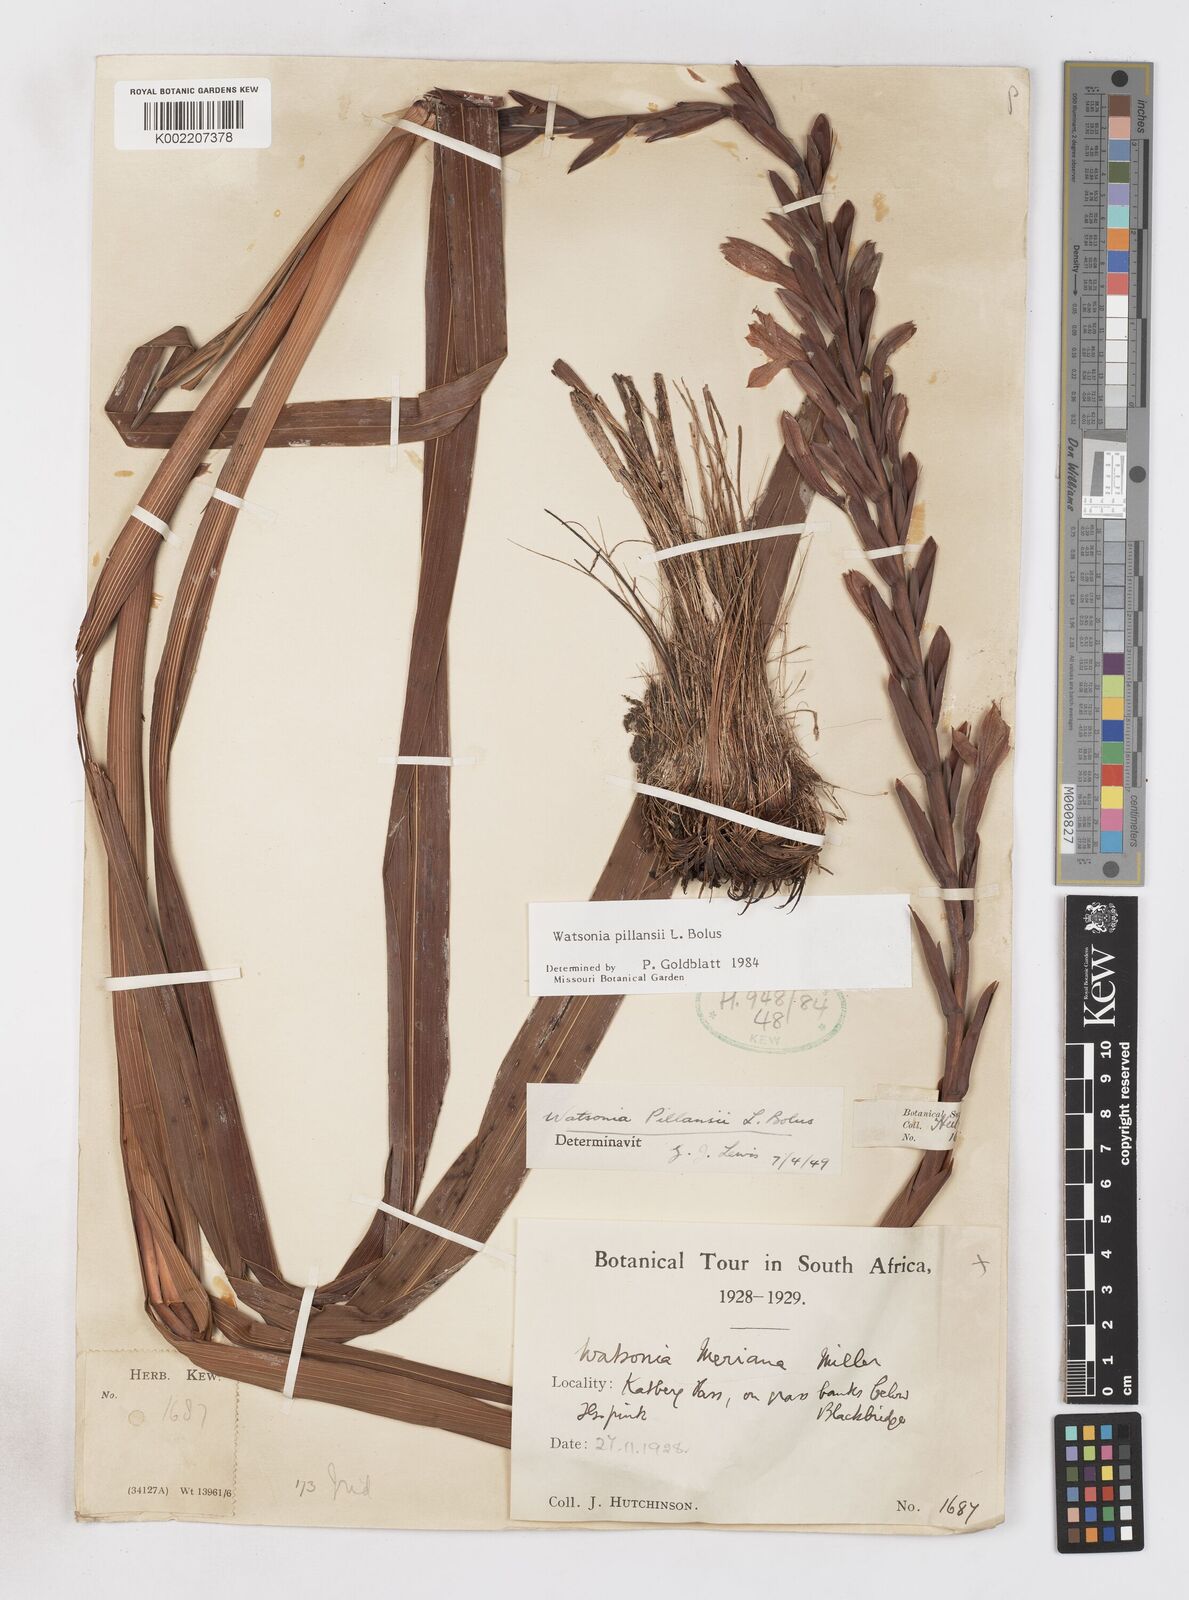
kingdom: Plantae
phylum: Tracheophyta
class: Liliopsida
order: Asparagales
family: Iridaceae
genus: Watsonia
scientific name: Watsonia pillansii
